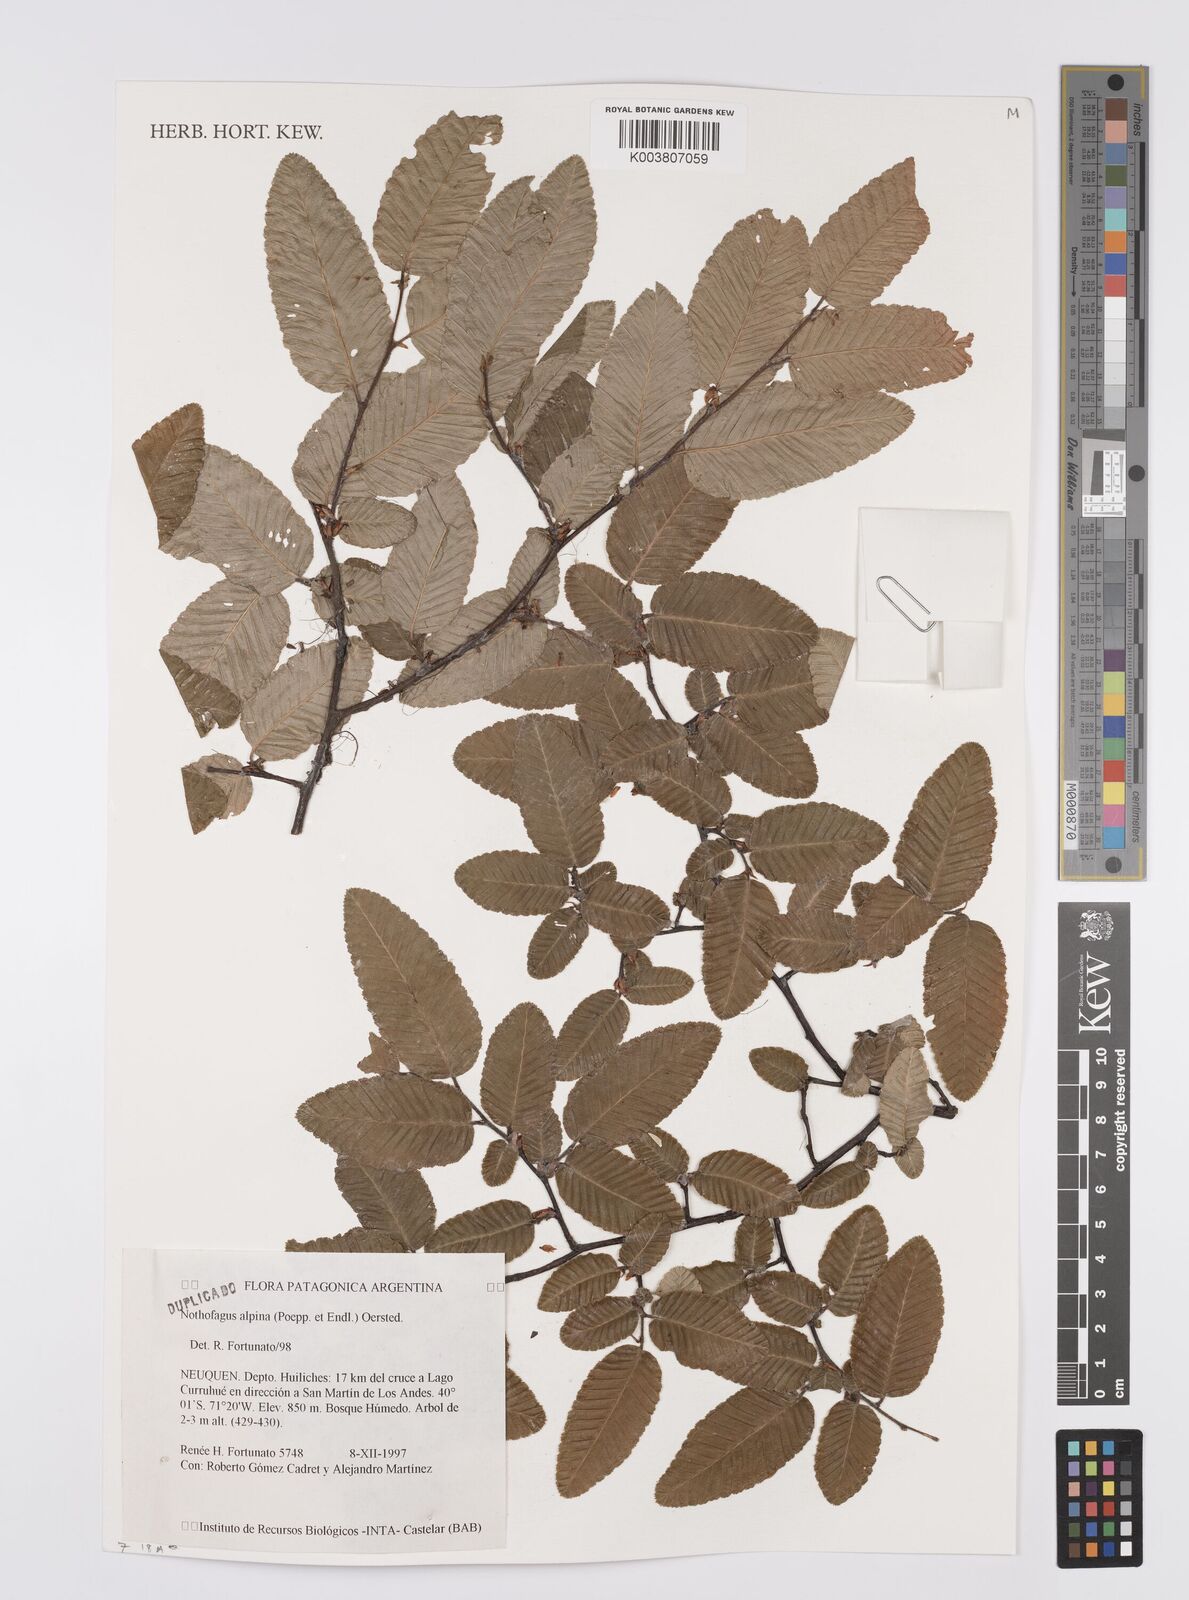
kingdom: Plantae
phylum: Tracheophyta
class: Magnoliopsida
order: Fagales
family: Nothofagaceae
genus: Nothofagus
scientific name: Nothofagus alpina
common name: Rauli
